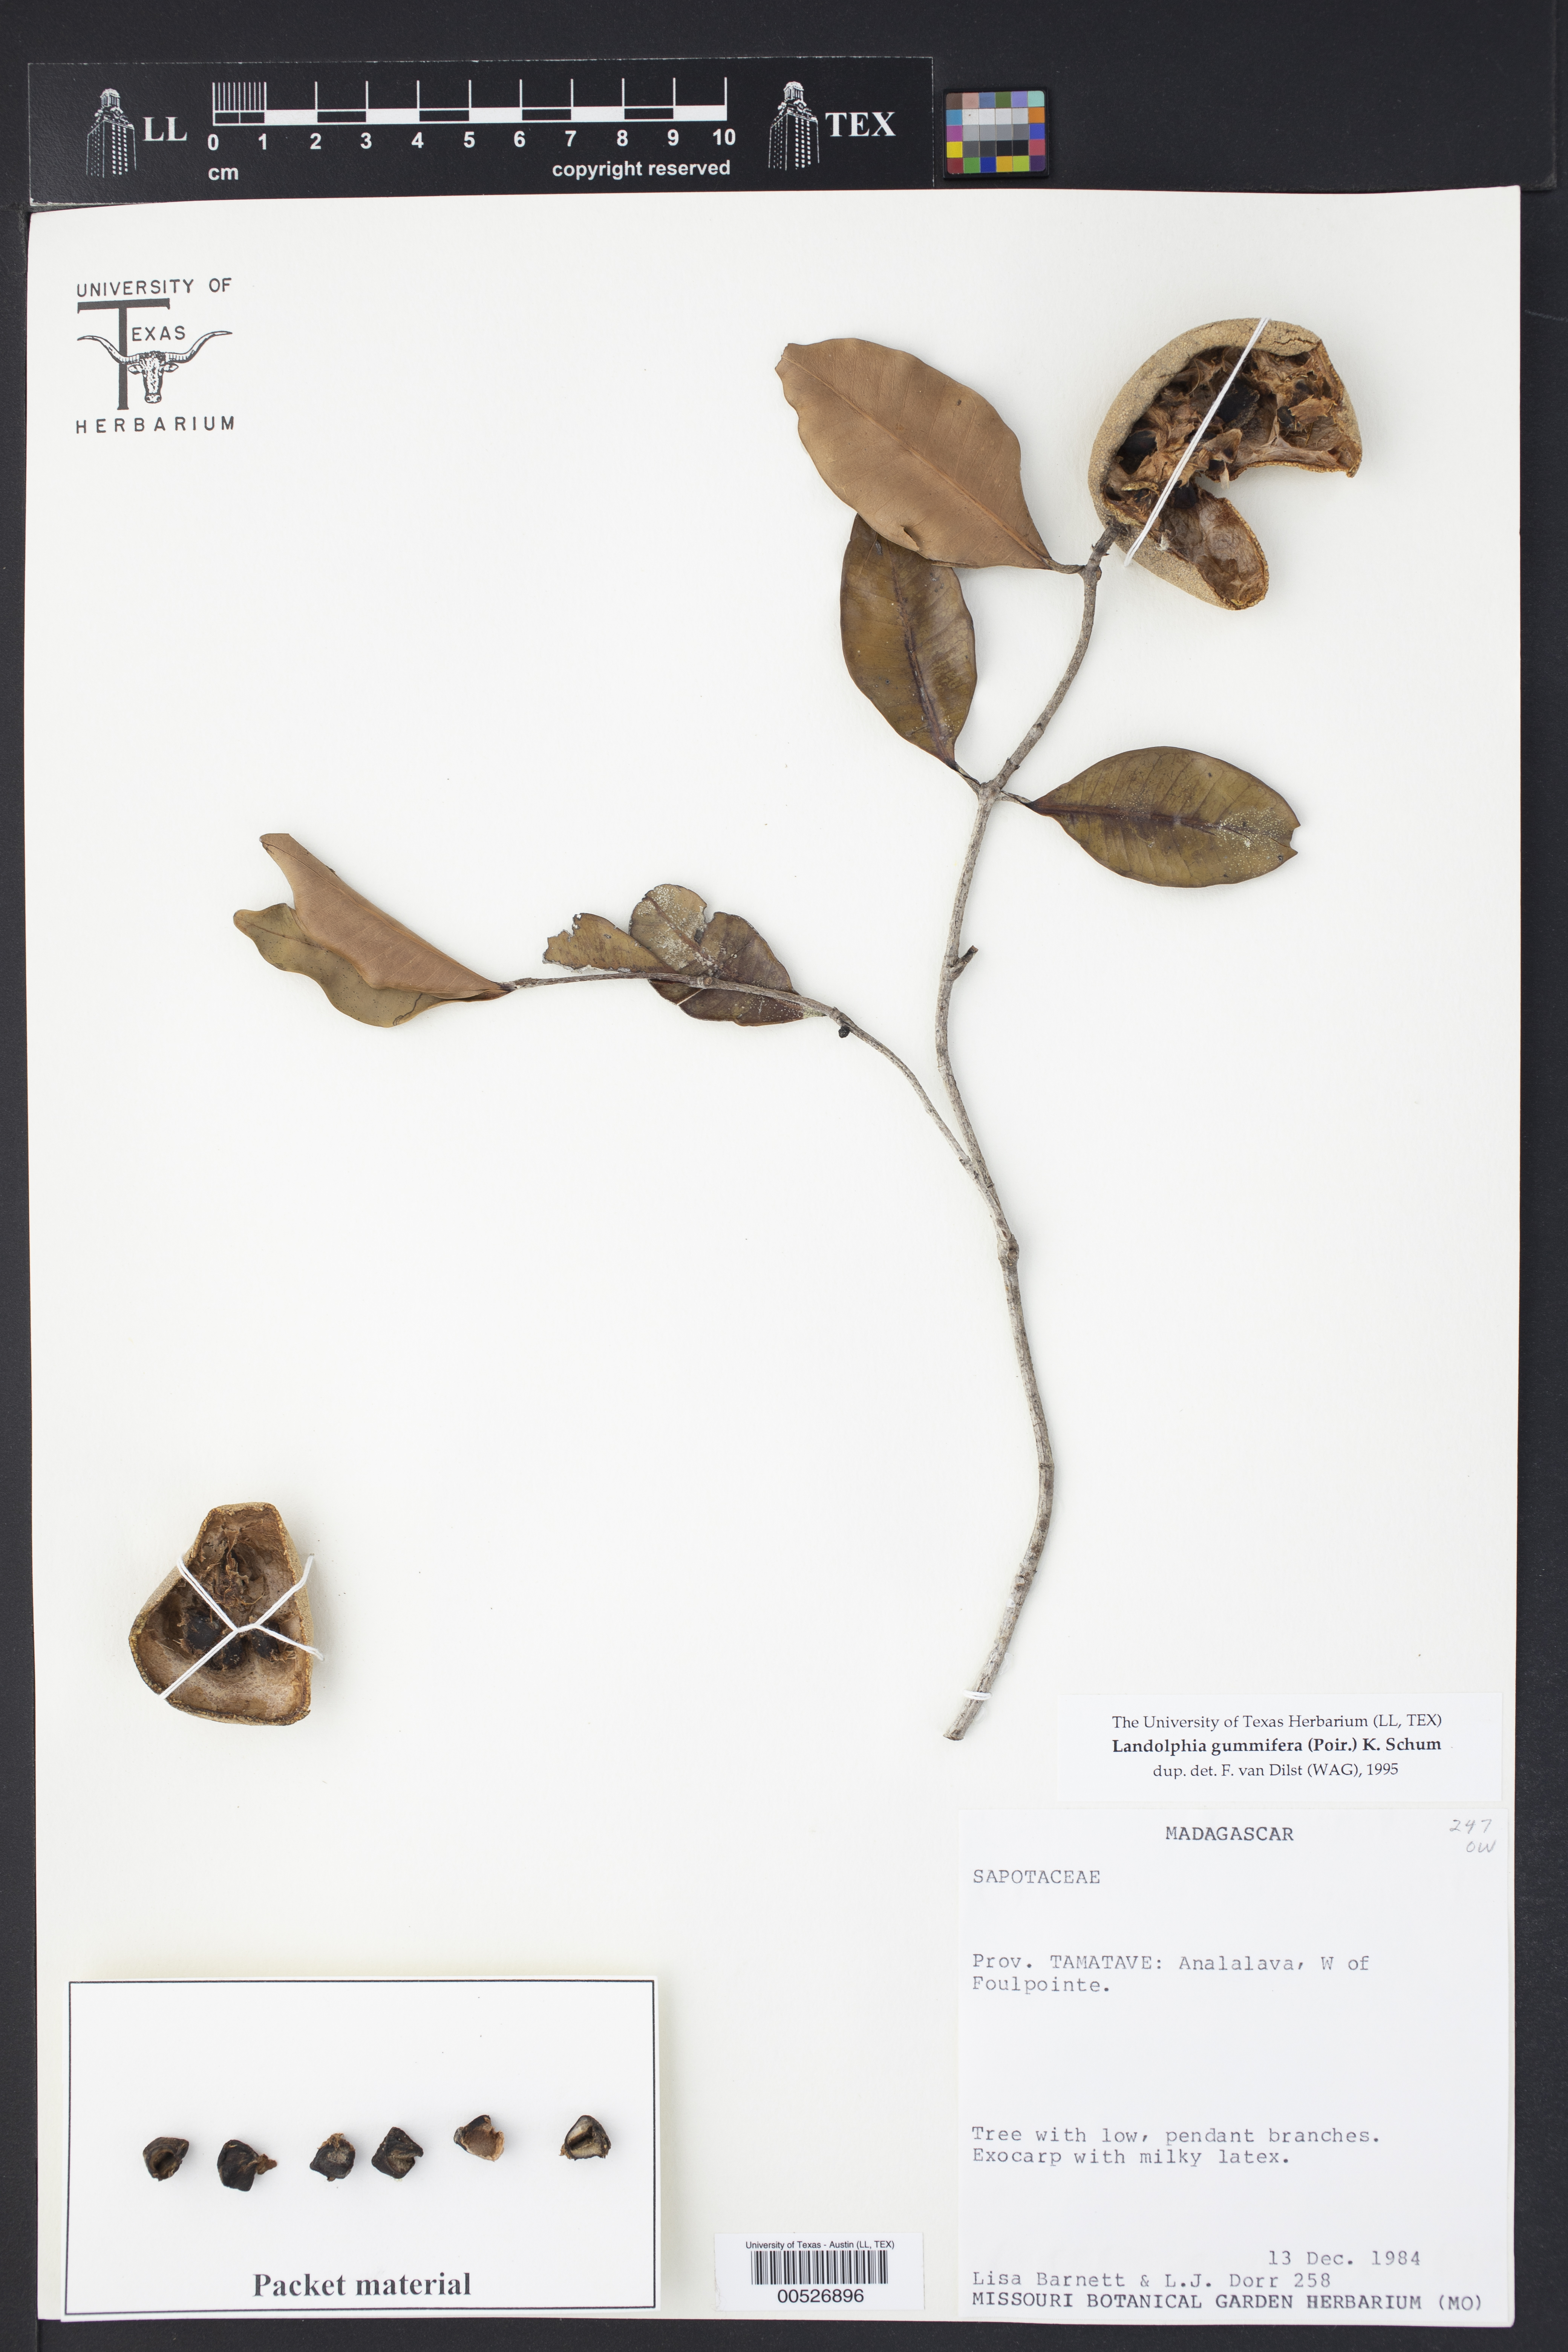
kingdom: Plantae
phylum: Tracheophyta
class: Magnoliopsida
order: Gentianales
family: Apocynaceae
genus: Landolphia
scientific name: Landolphia gummifera
